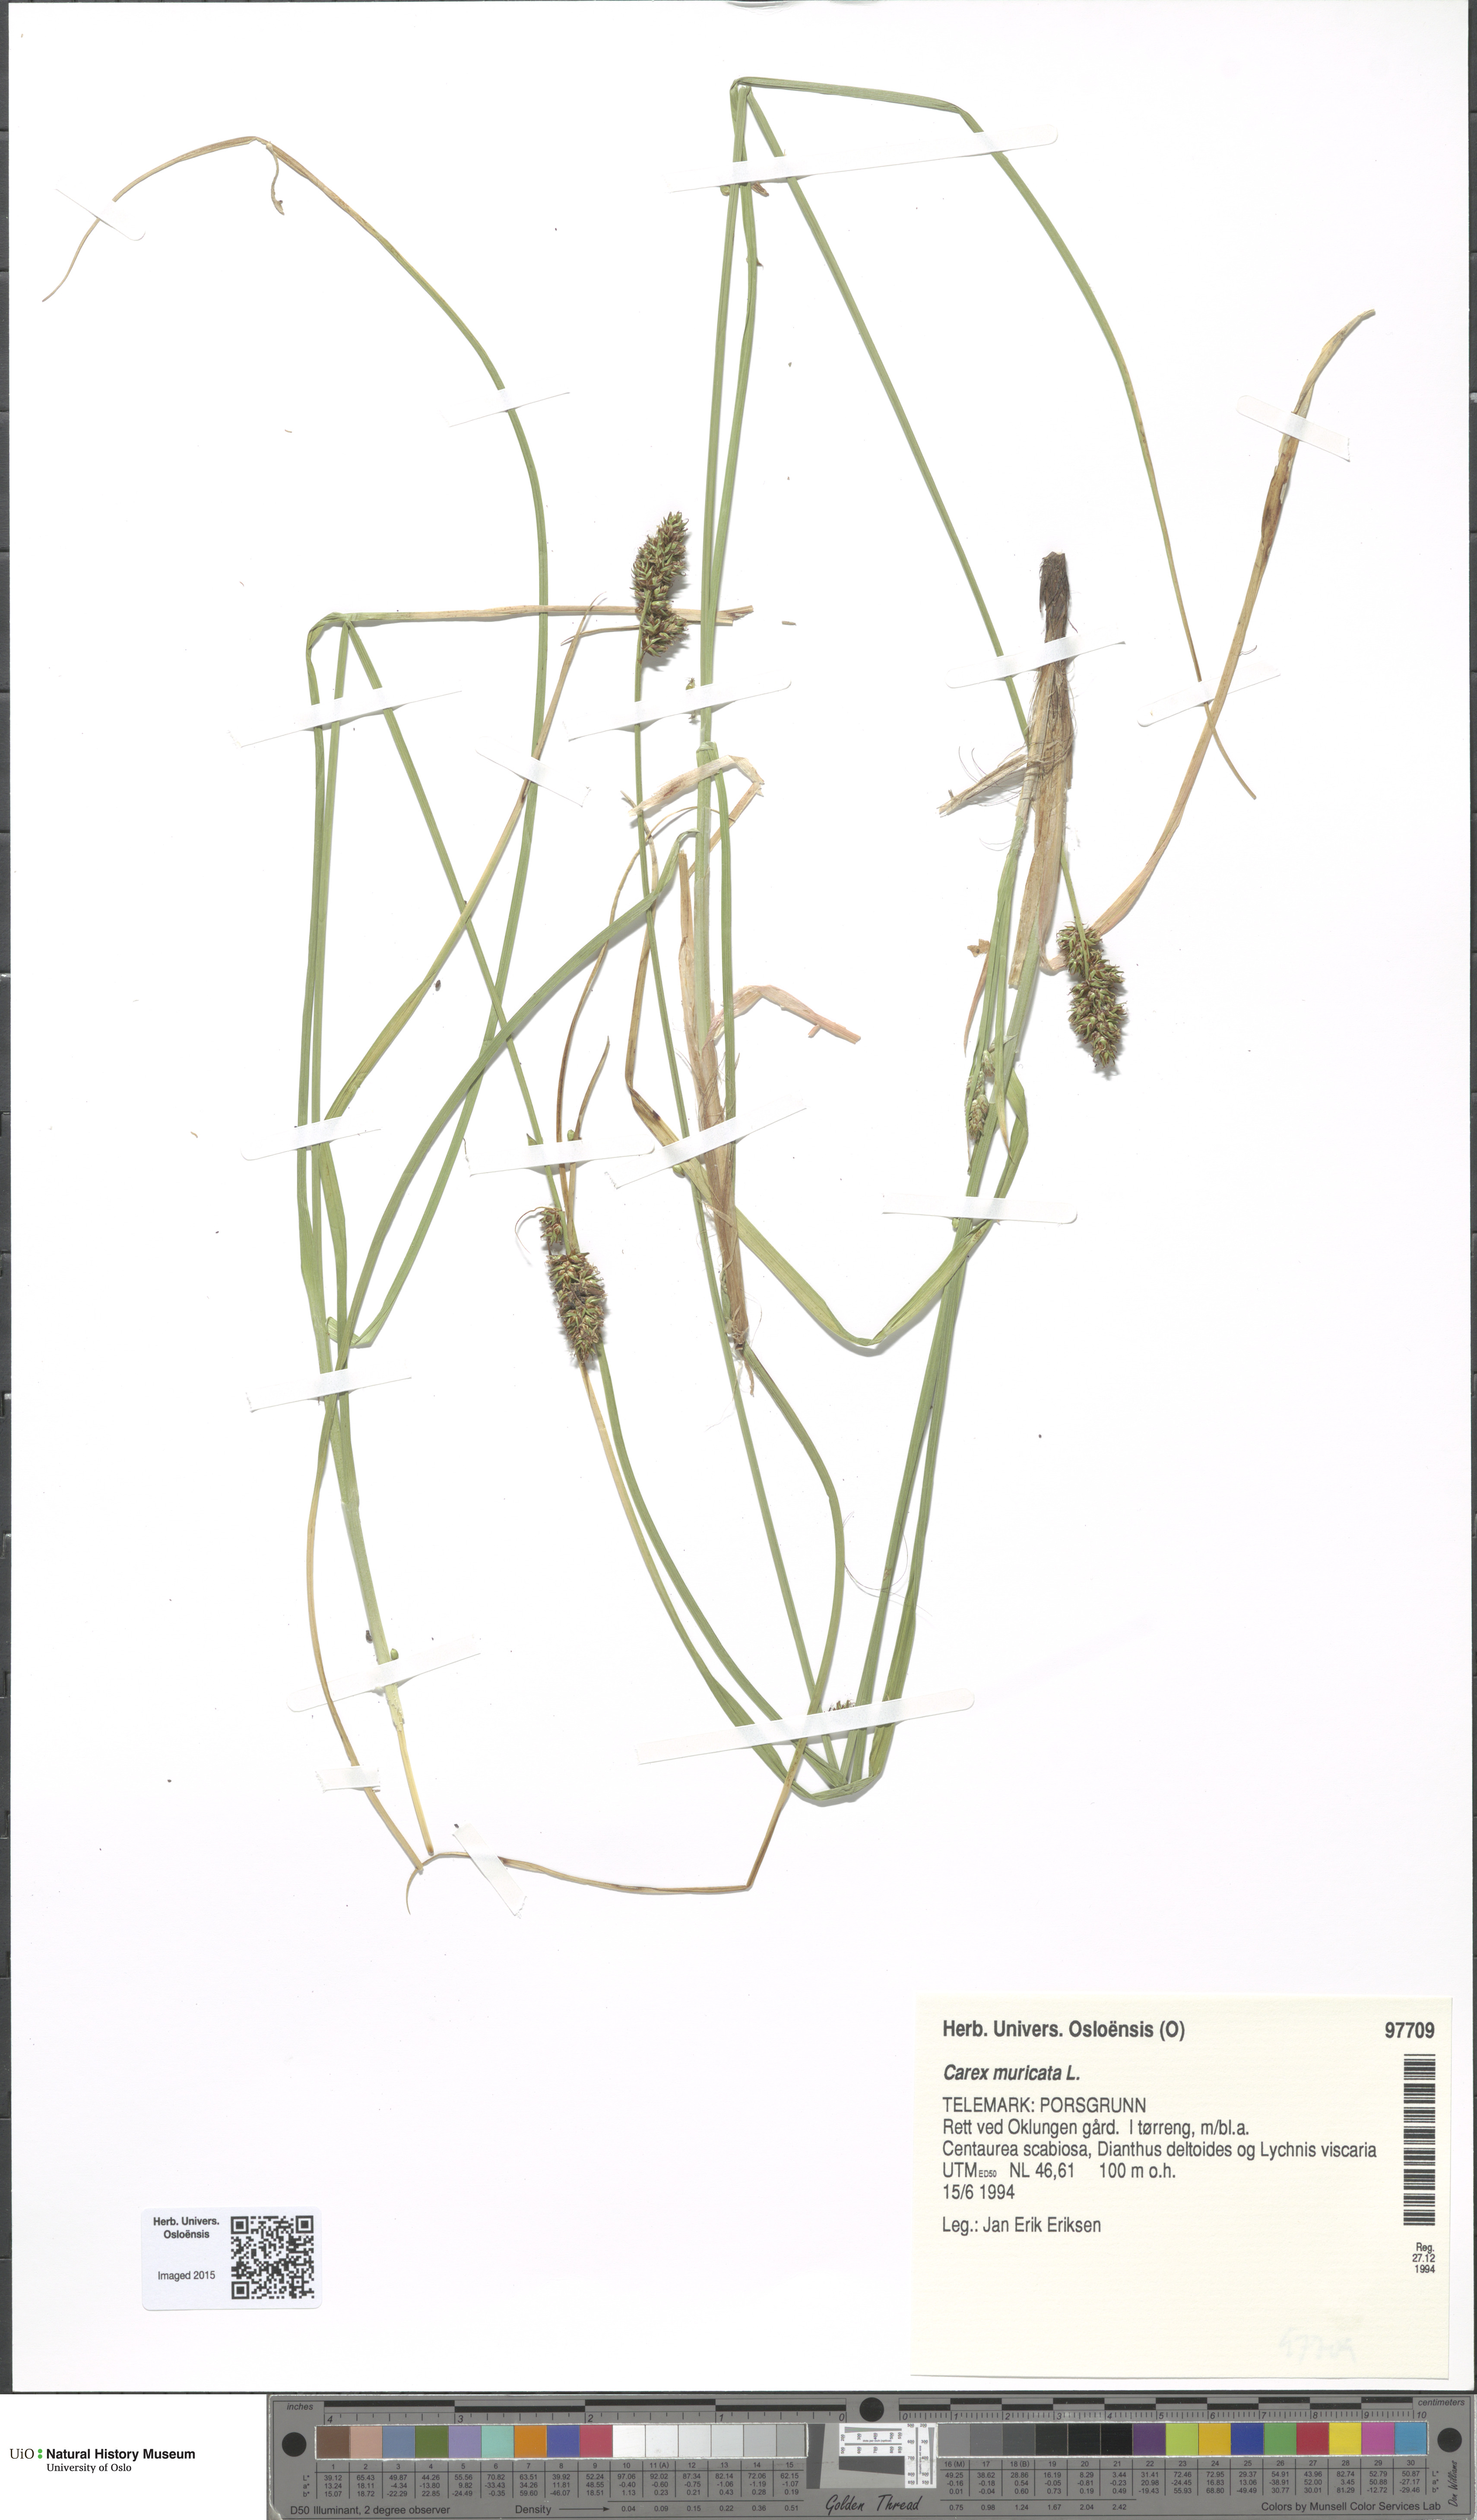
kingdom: Plantae
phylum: Tracheophyta
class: Liliopsida
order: Poales
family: Cyperaceae
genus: Carex
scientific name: Carex muricata
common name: Rough sedge
